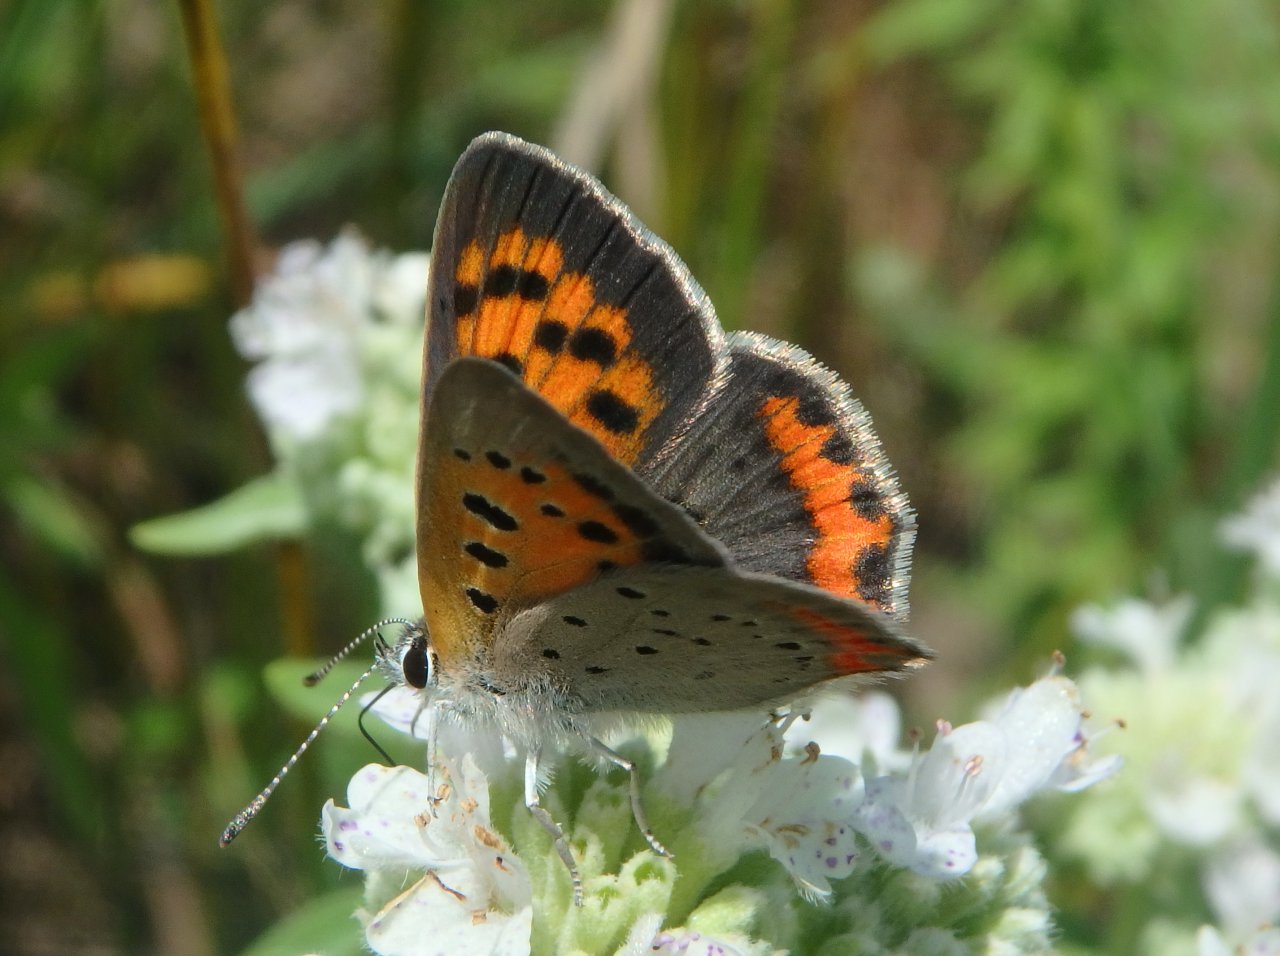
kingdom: Animalia
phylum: Arthropoda
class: Insecta
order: Lepidoptera
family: Lycaenidae
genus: Lycaena
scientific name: Lycaena phlaeas
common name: American Copper
